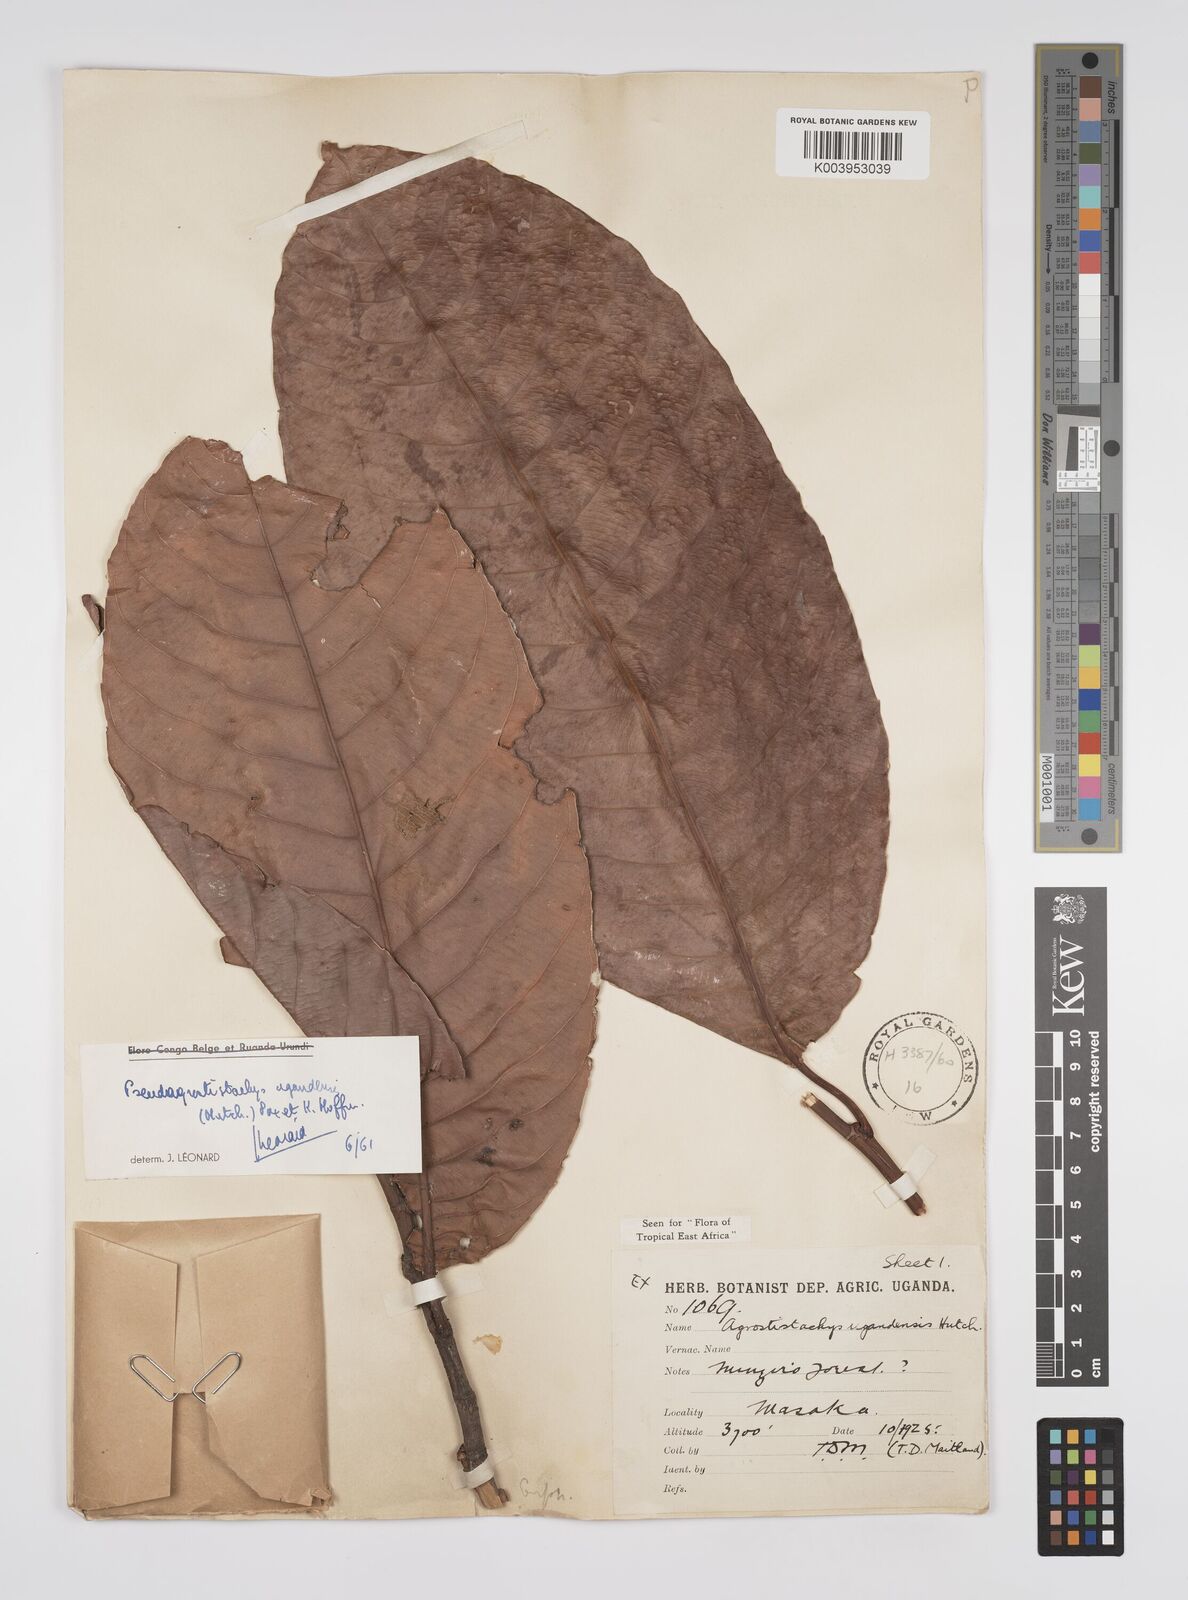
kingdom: Plantae
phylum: Tracheophyta
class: Magnoliopsida
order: Malpighiales
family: Euphorbiaceae
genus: Pseudagrostistachys
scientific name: Pseudagrostistachys ugandensis
